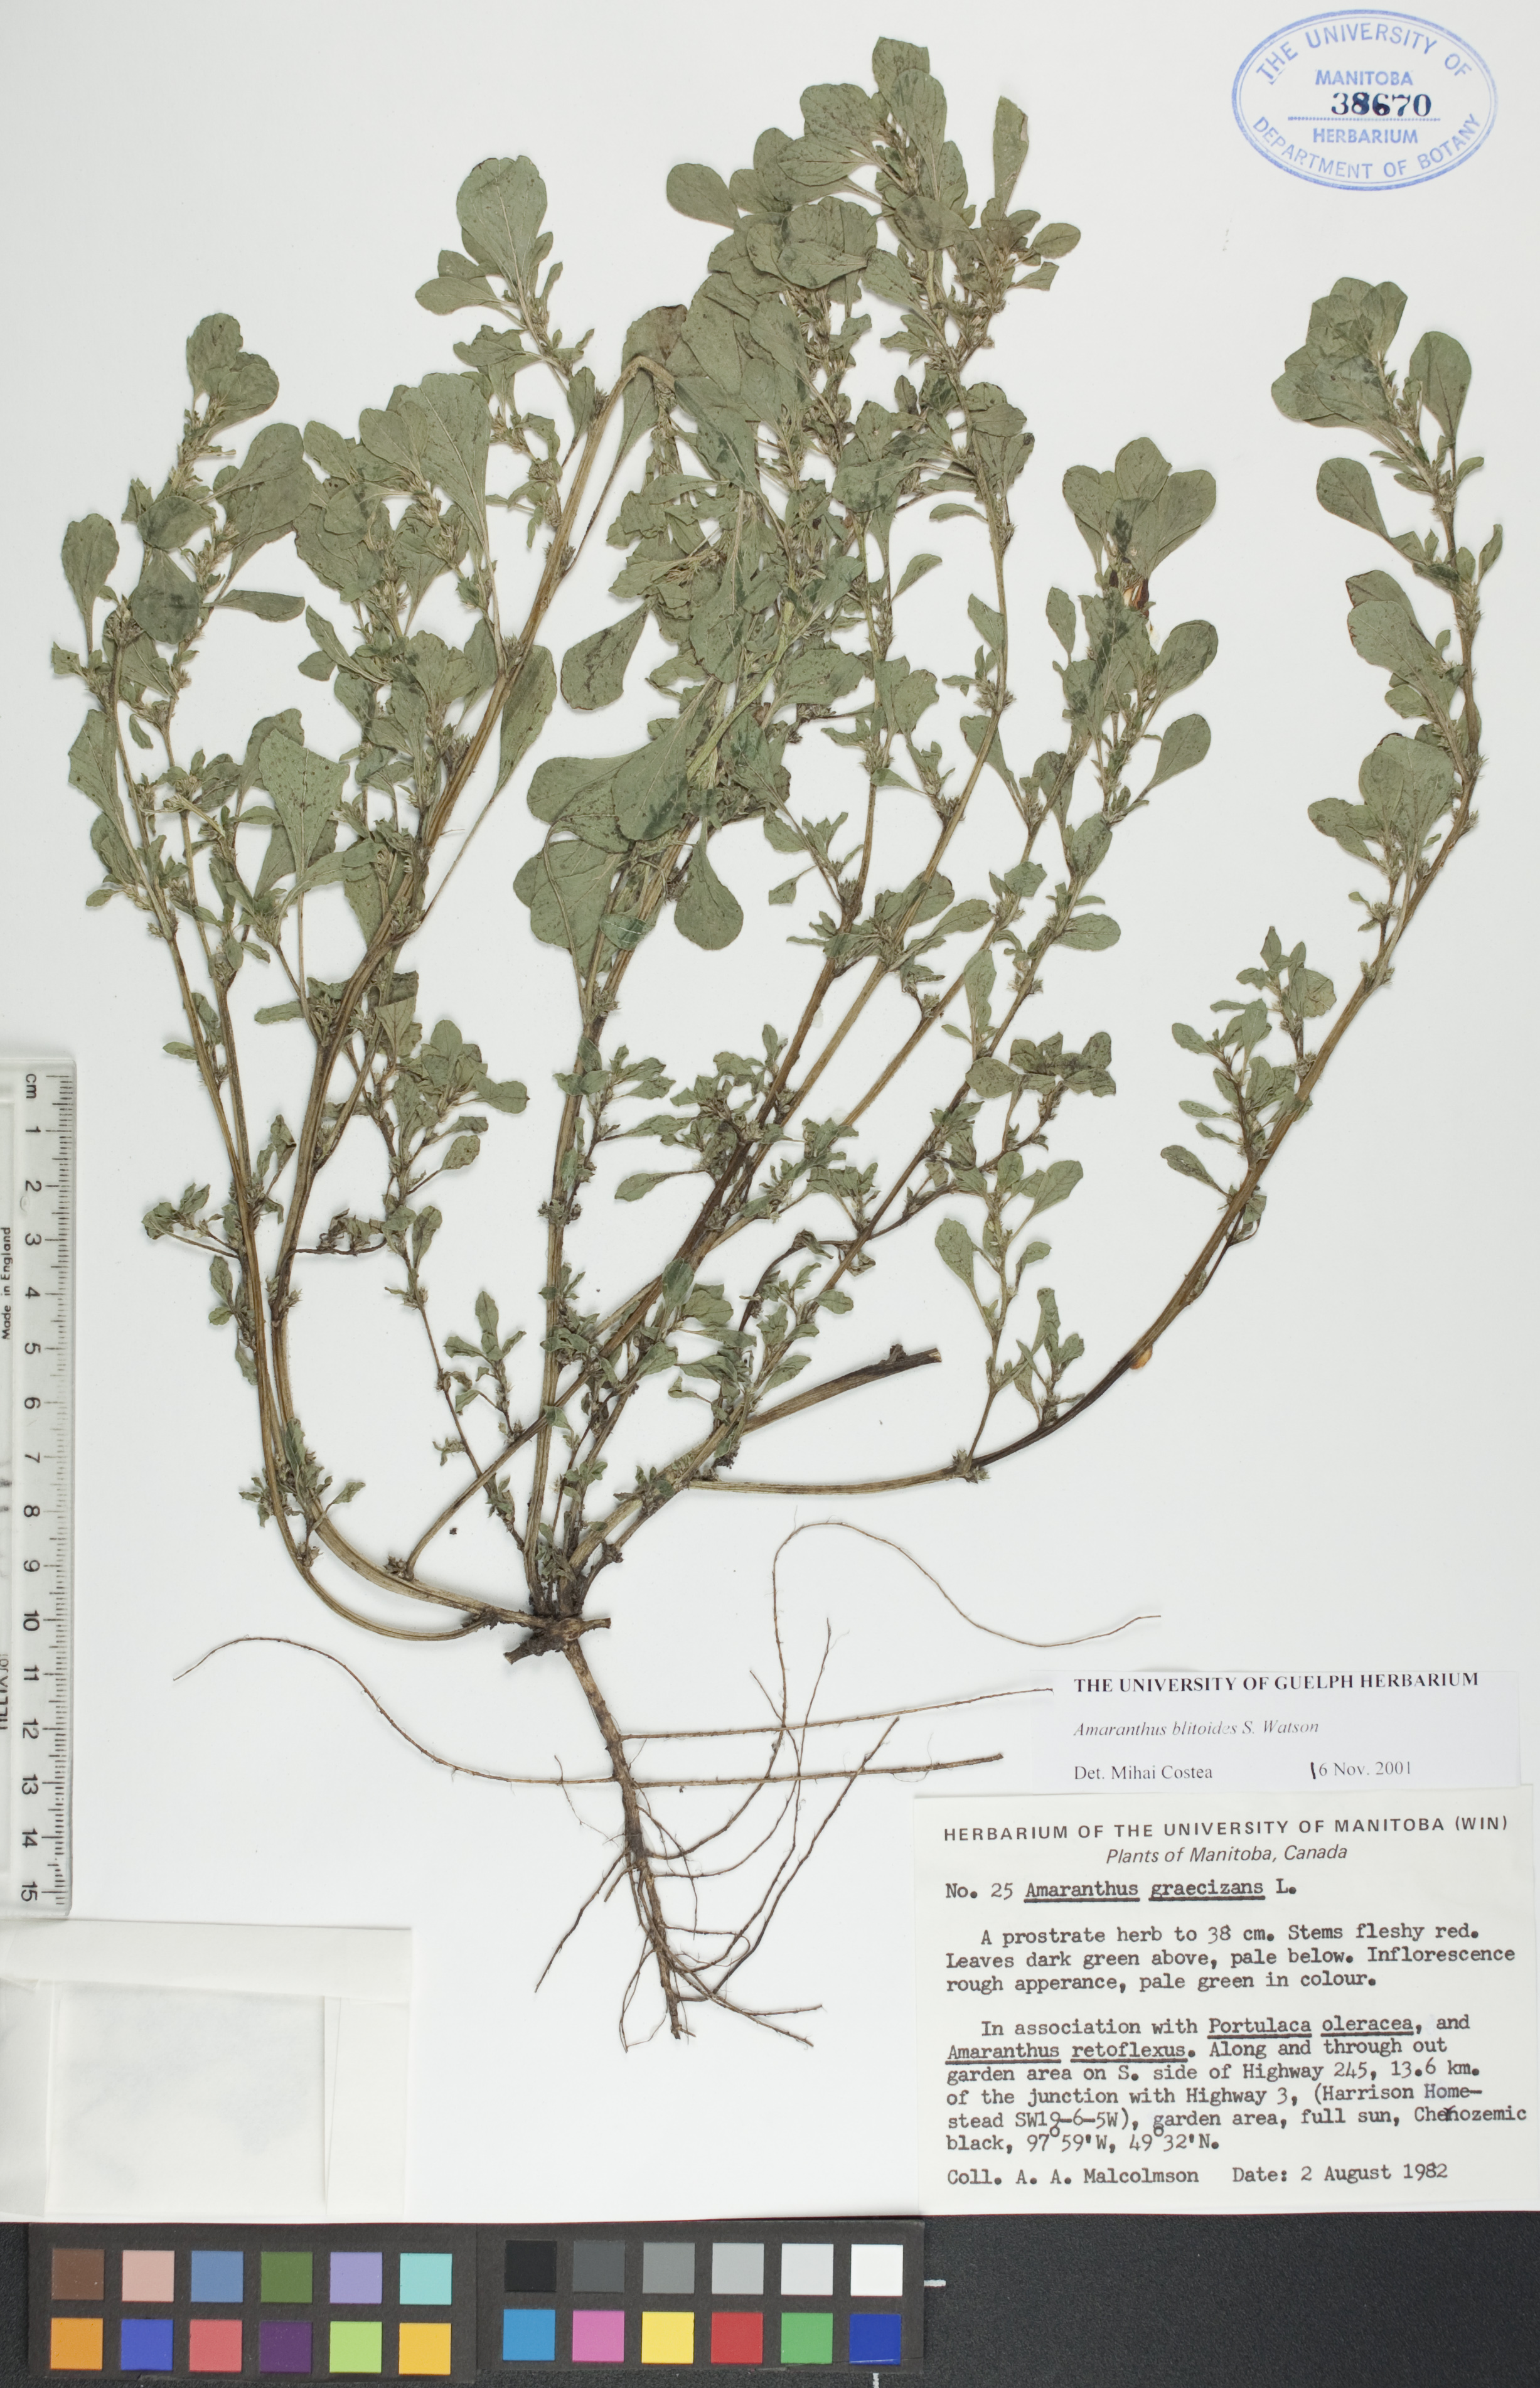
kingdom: Plantae
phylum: Tracheophyta
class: Magnoliopsida
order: Caryophyllales
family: Amaranthaceae
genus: Amaranthus
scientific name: Amaranthus blitoides
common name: Prostrate pigweed
